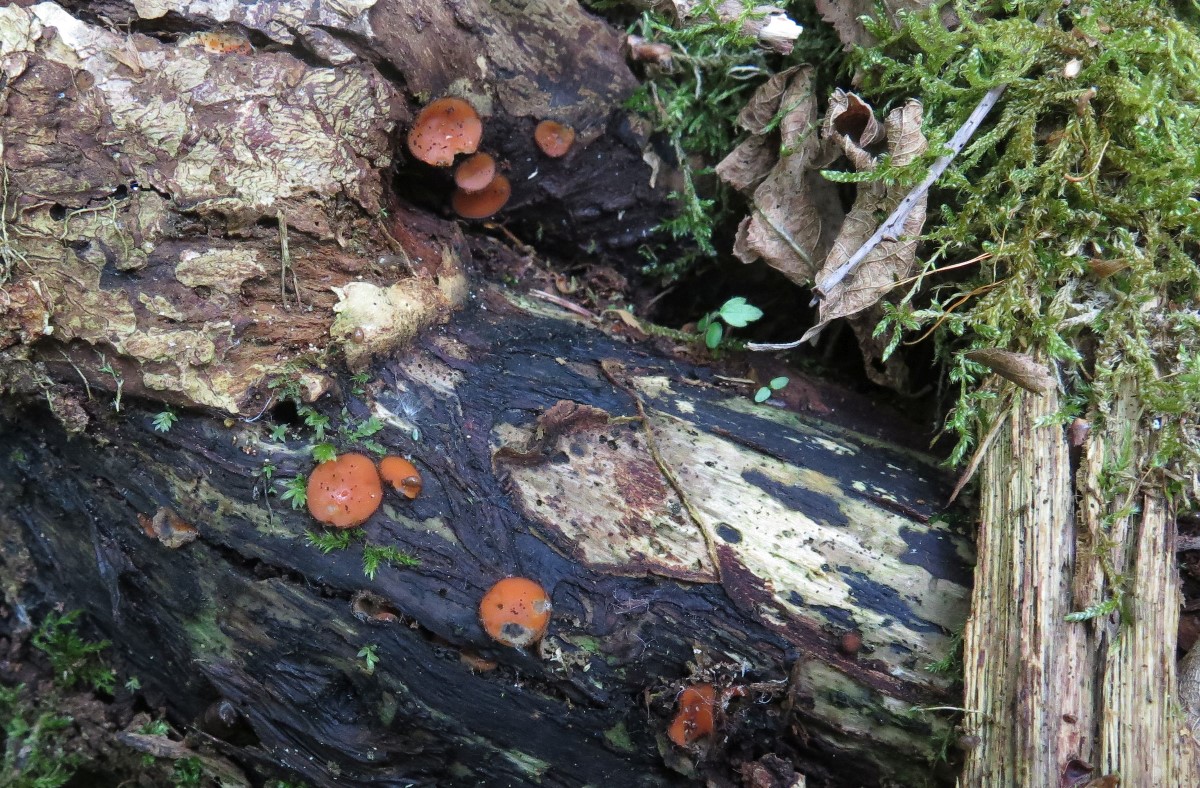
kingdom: Fungi
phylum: Ascomycota
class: Pezizomycetes
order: Pezizales
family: Pyronemataceae
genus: Scutellinia
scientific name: Scutellinia scutellata
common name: frynset skjoldbæger
